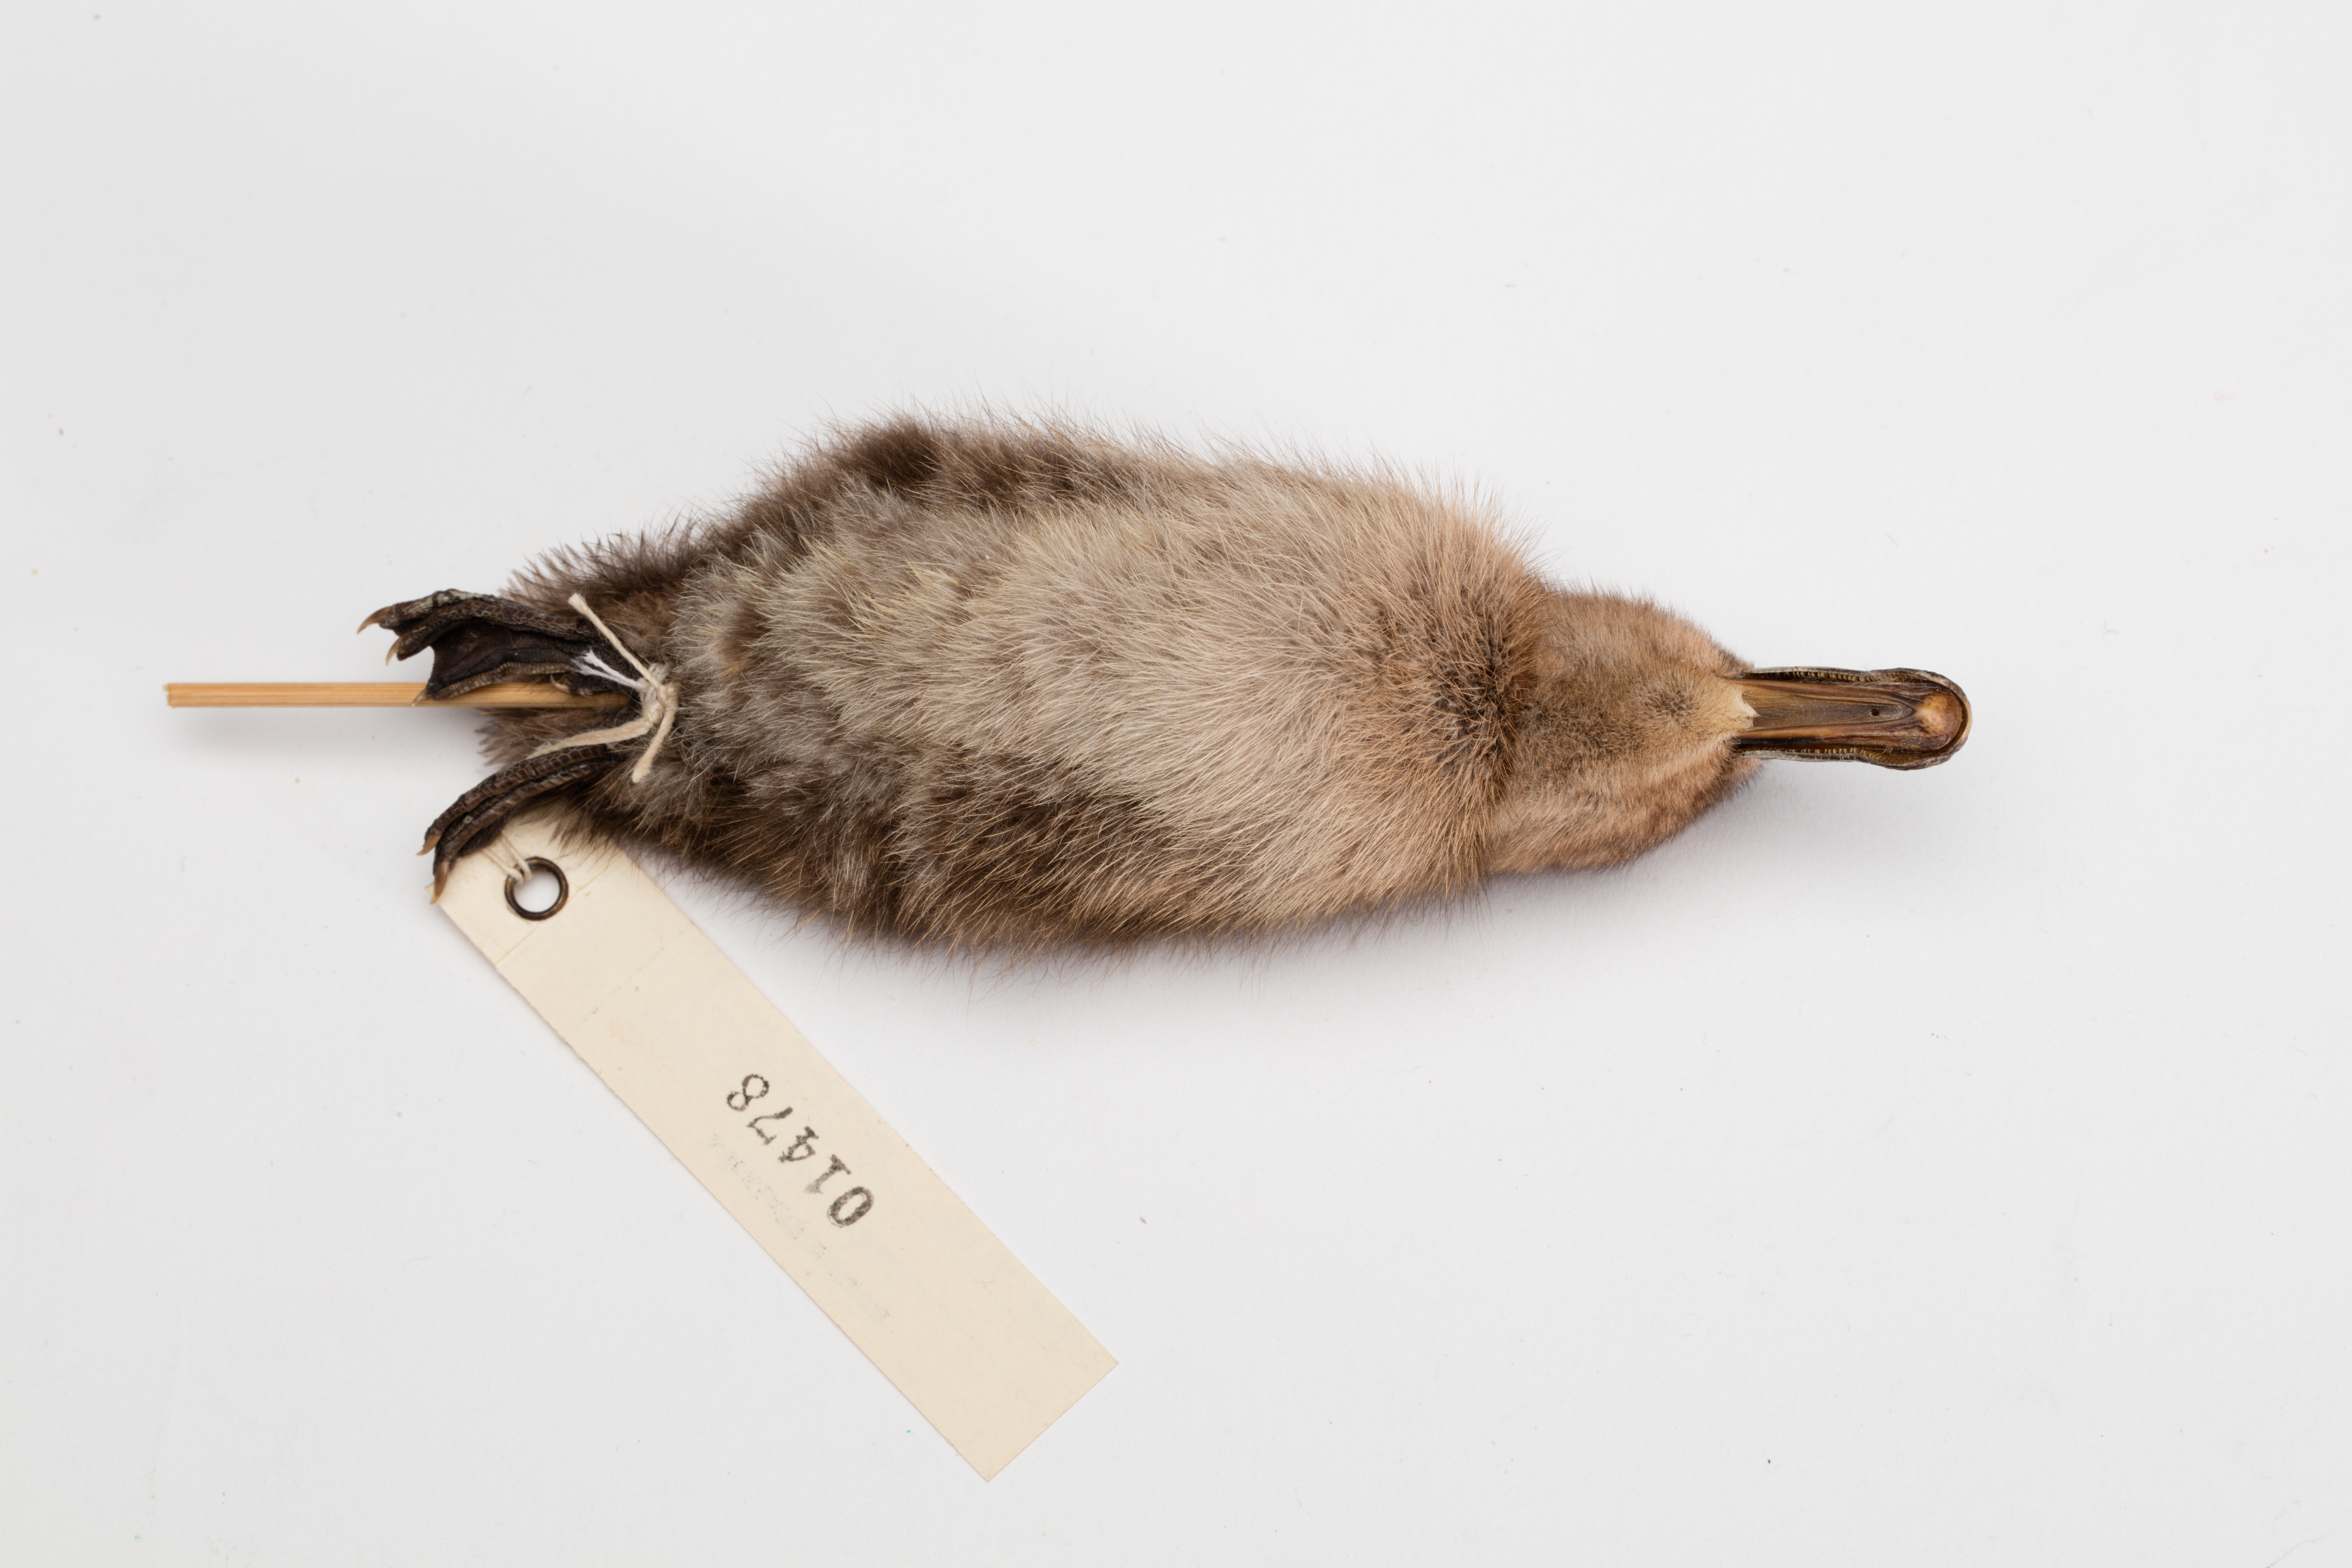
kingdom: Animalia
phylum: Chordata
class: Aves
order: Anseriformes
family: Anatidae
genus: Anas
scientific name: Anas chlorotis
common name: Brown teal
